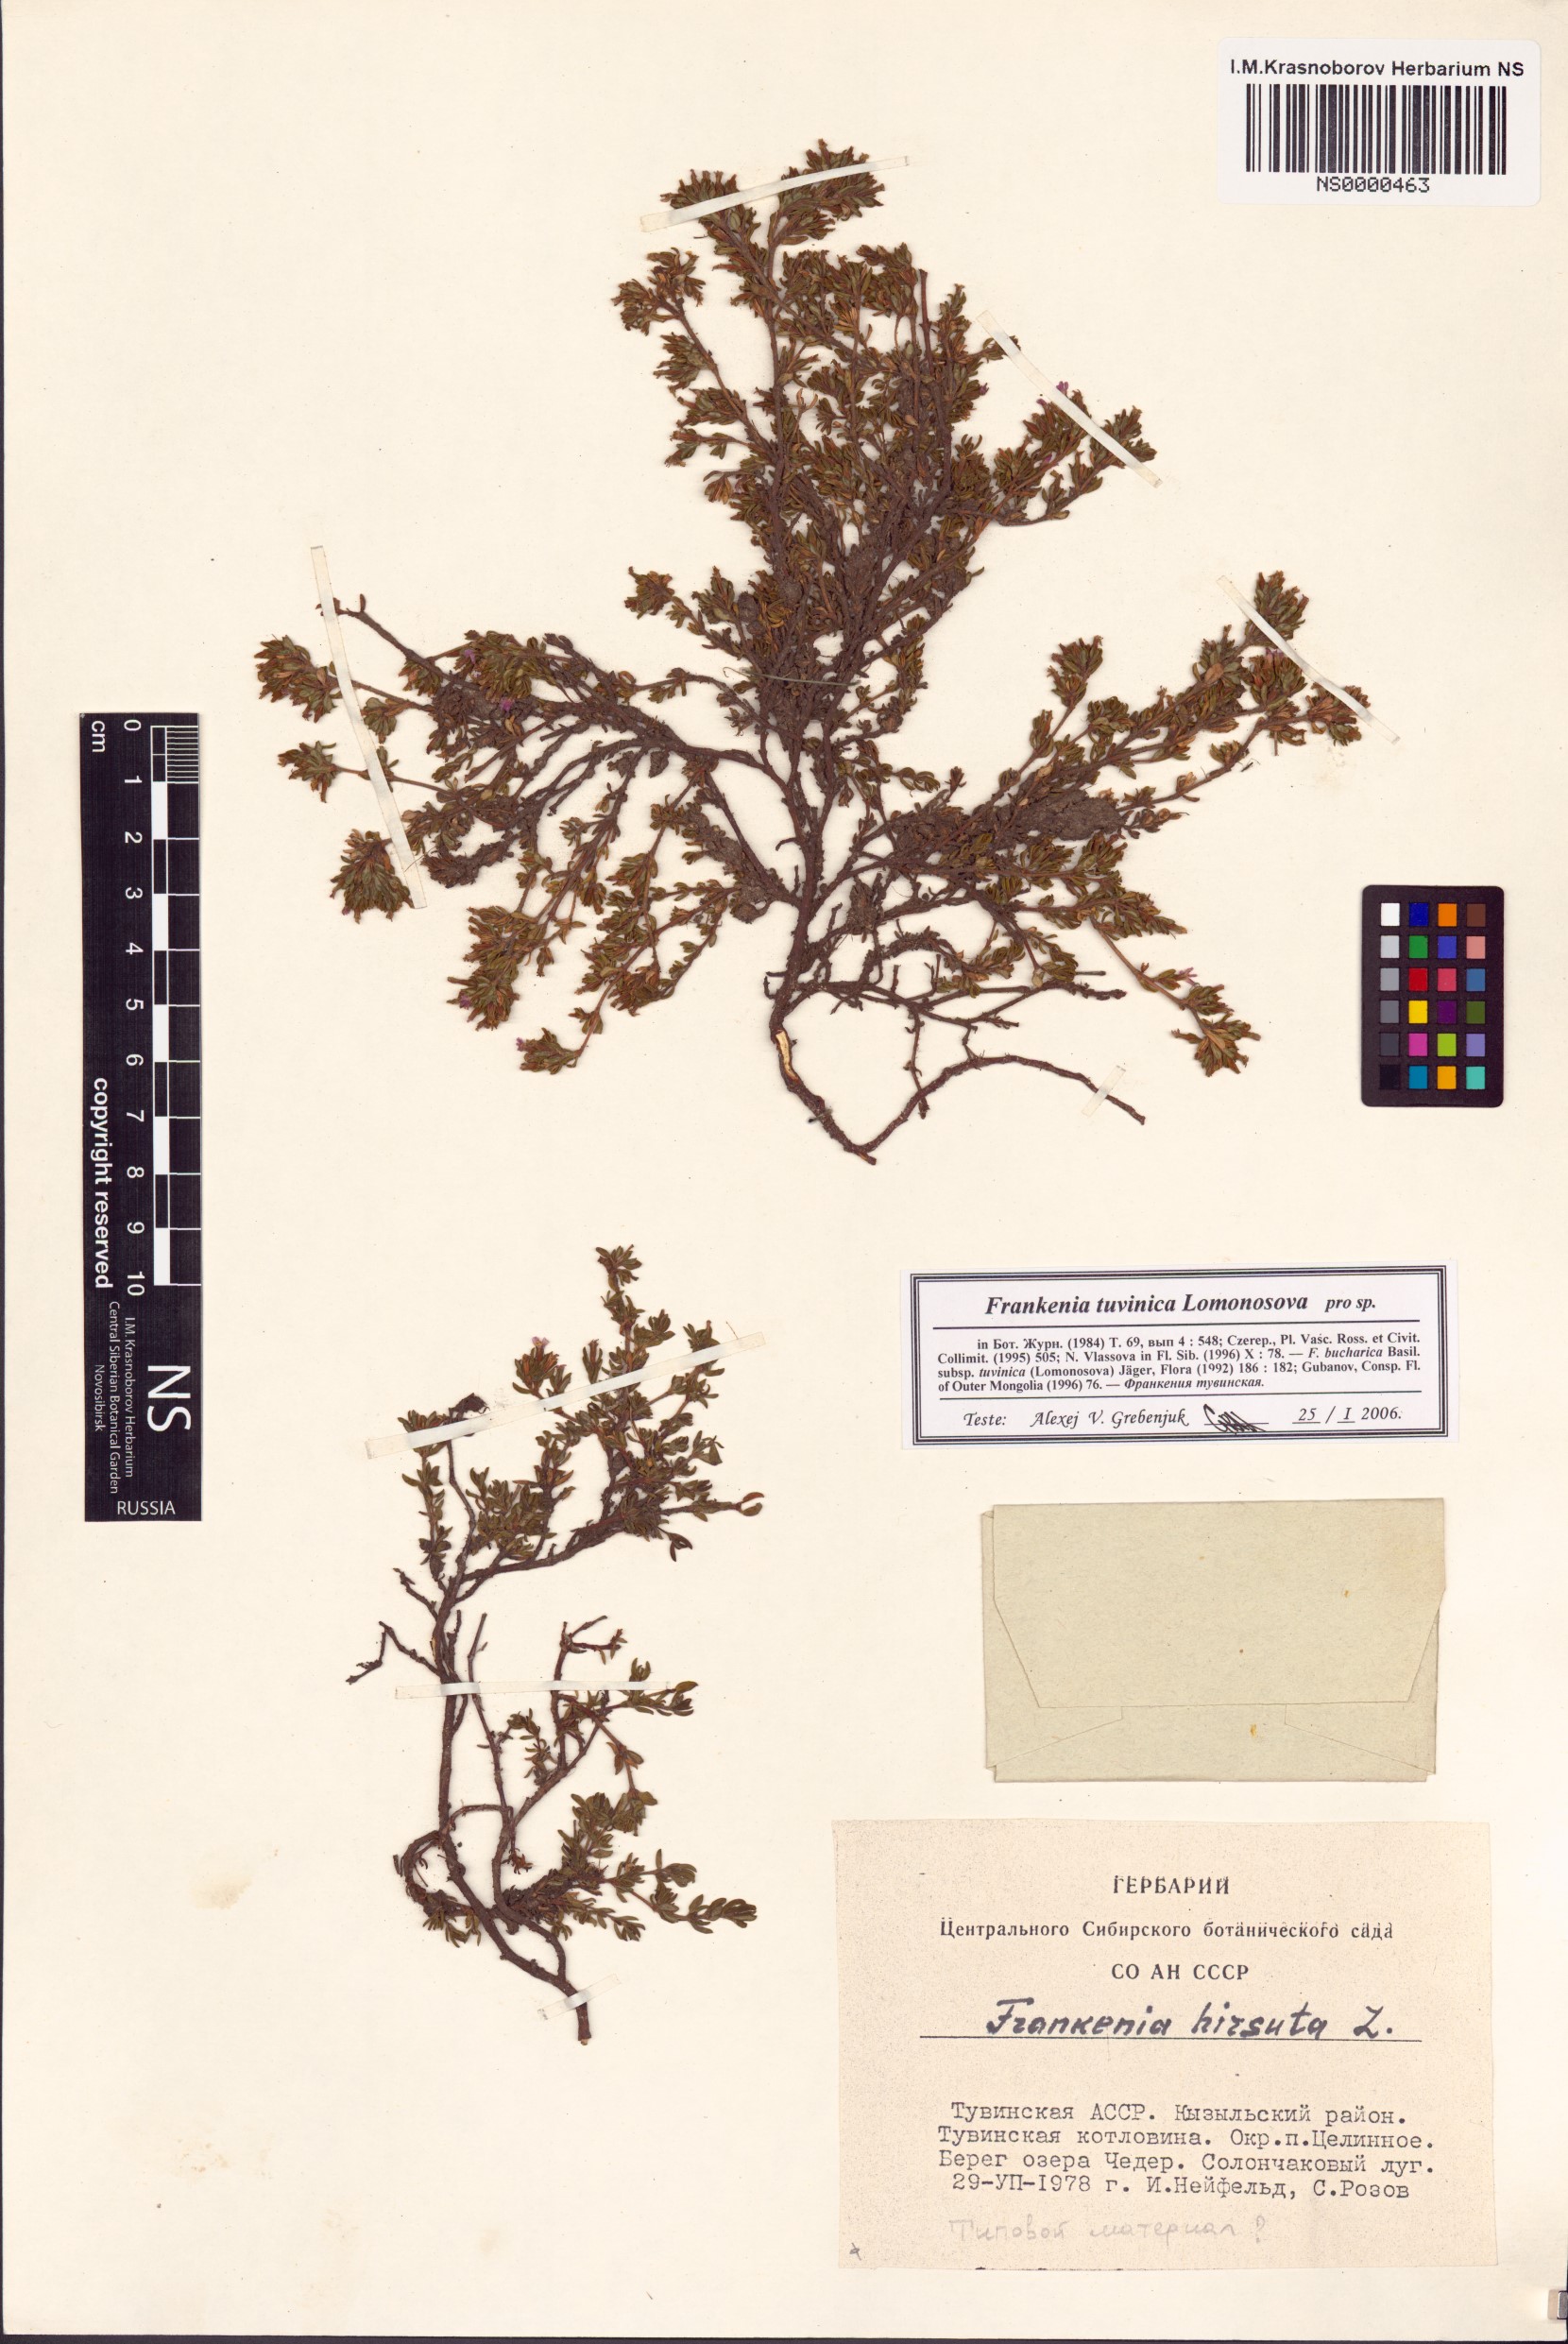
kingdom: Plantae
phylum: Tracheophyta
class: Magnoliopsida
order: Caryophyllales
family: Frankeniaceae
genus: Frankenia
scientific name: Frankenia tuvinica
